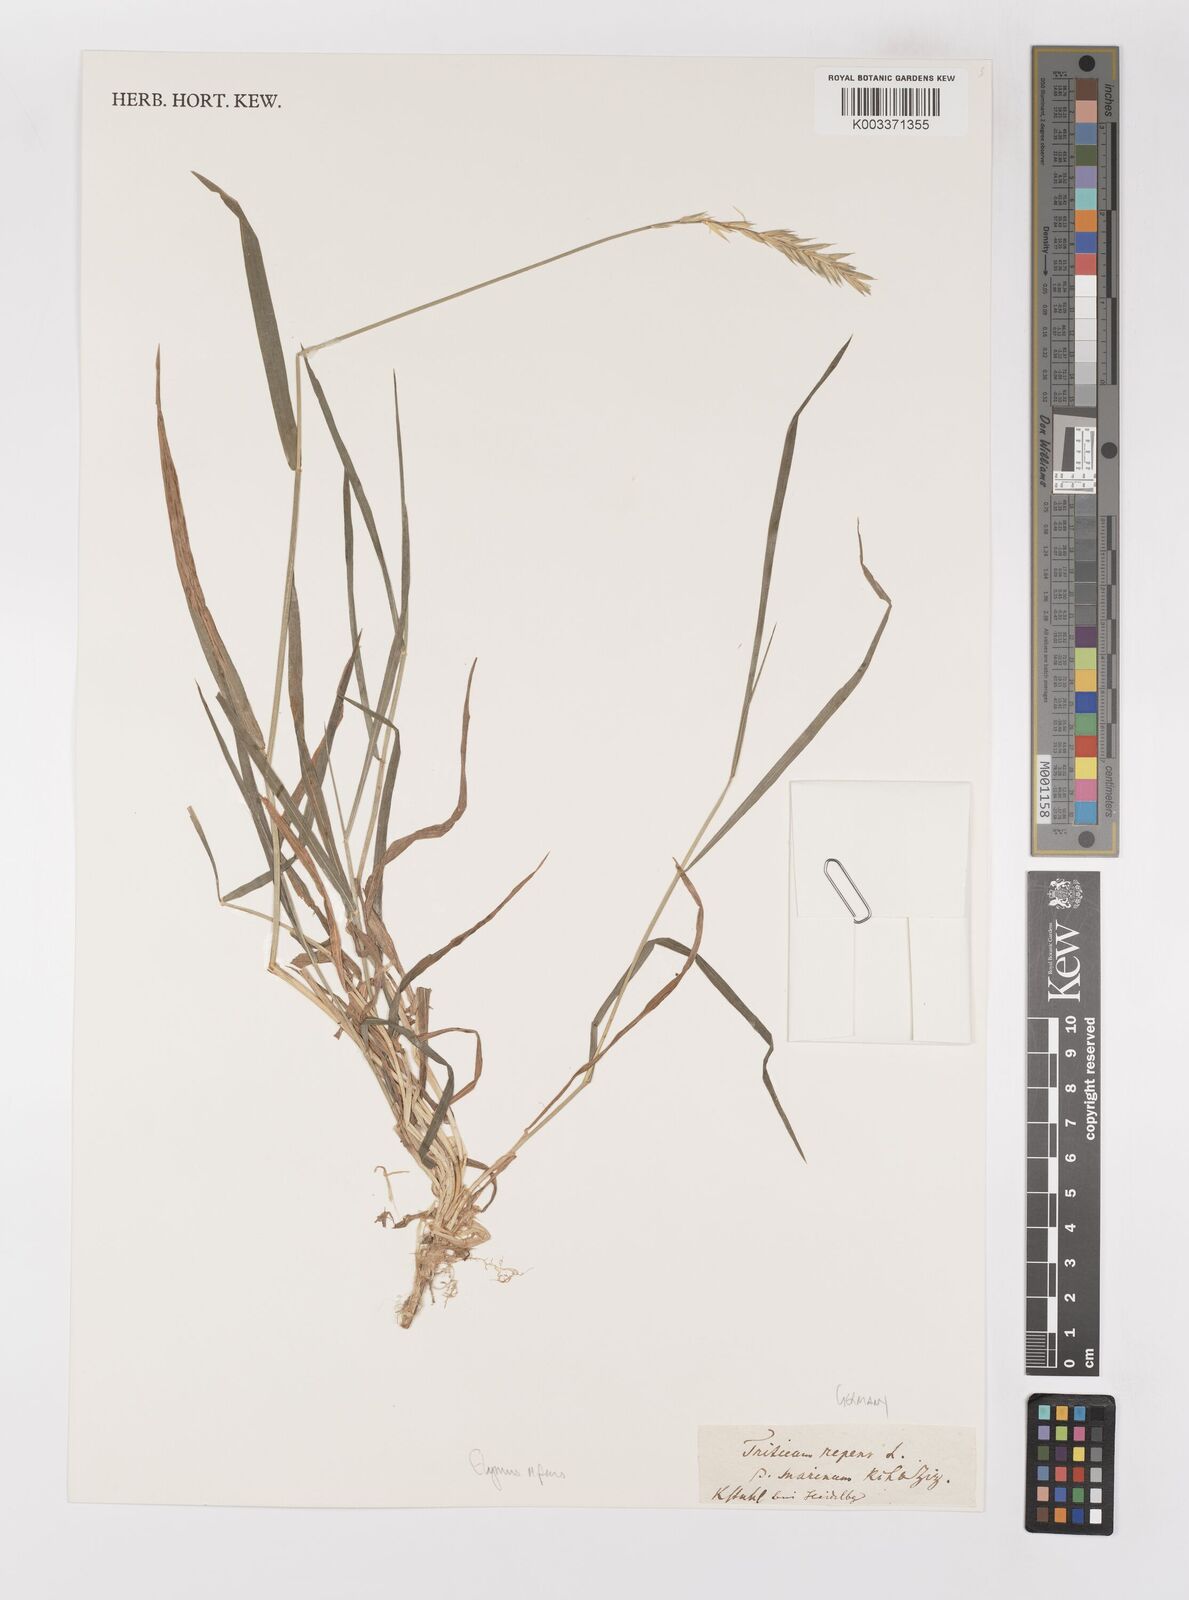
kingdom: Plantae
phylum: Tracheophyta
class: Liliopsida
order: Poales
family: Poaceae
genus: Elymus
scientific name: Elymus repens
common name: Quackgrass
